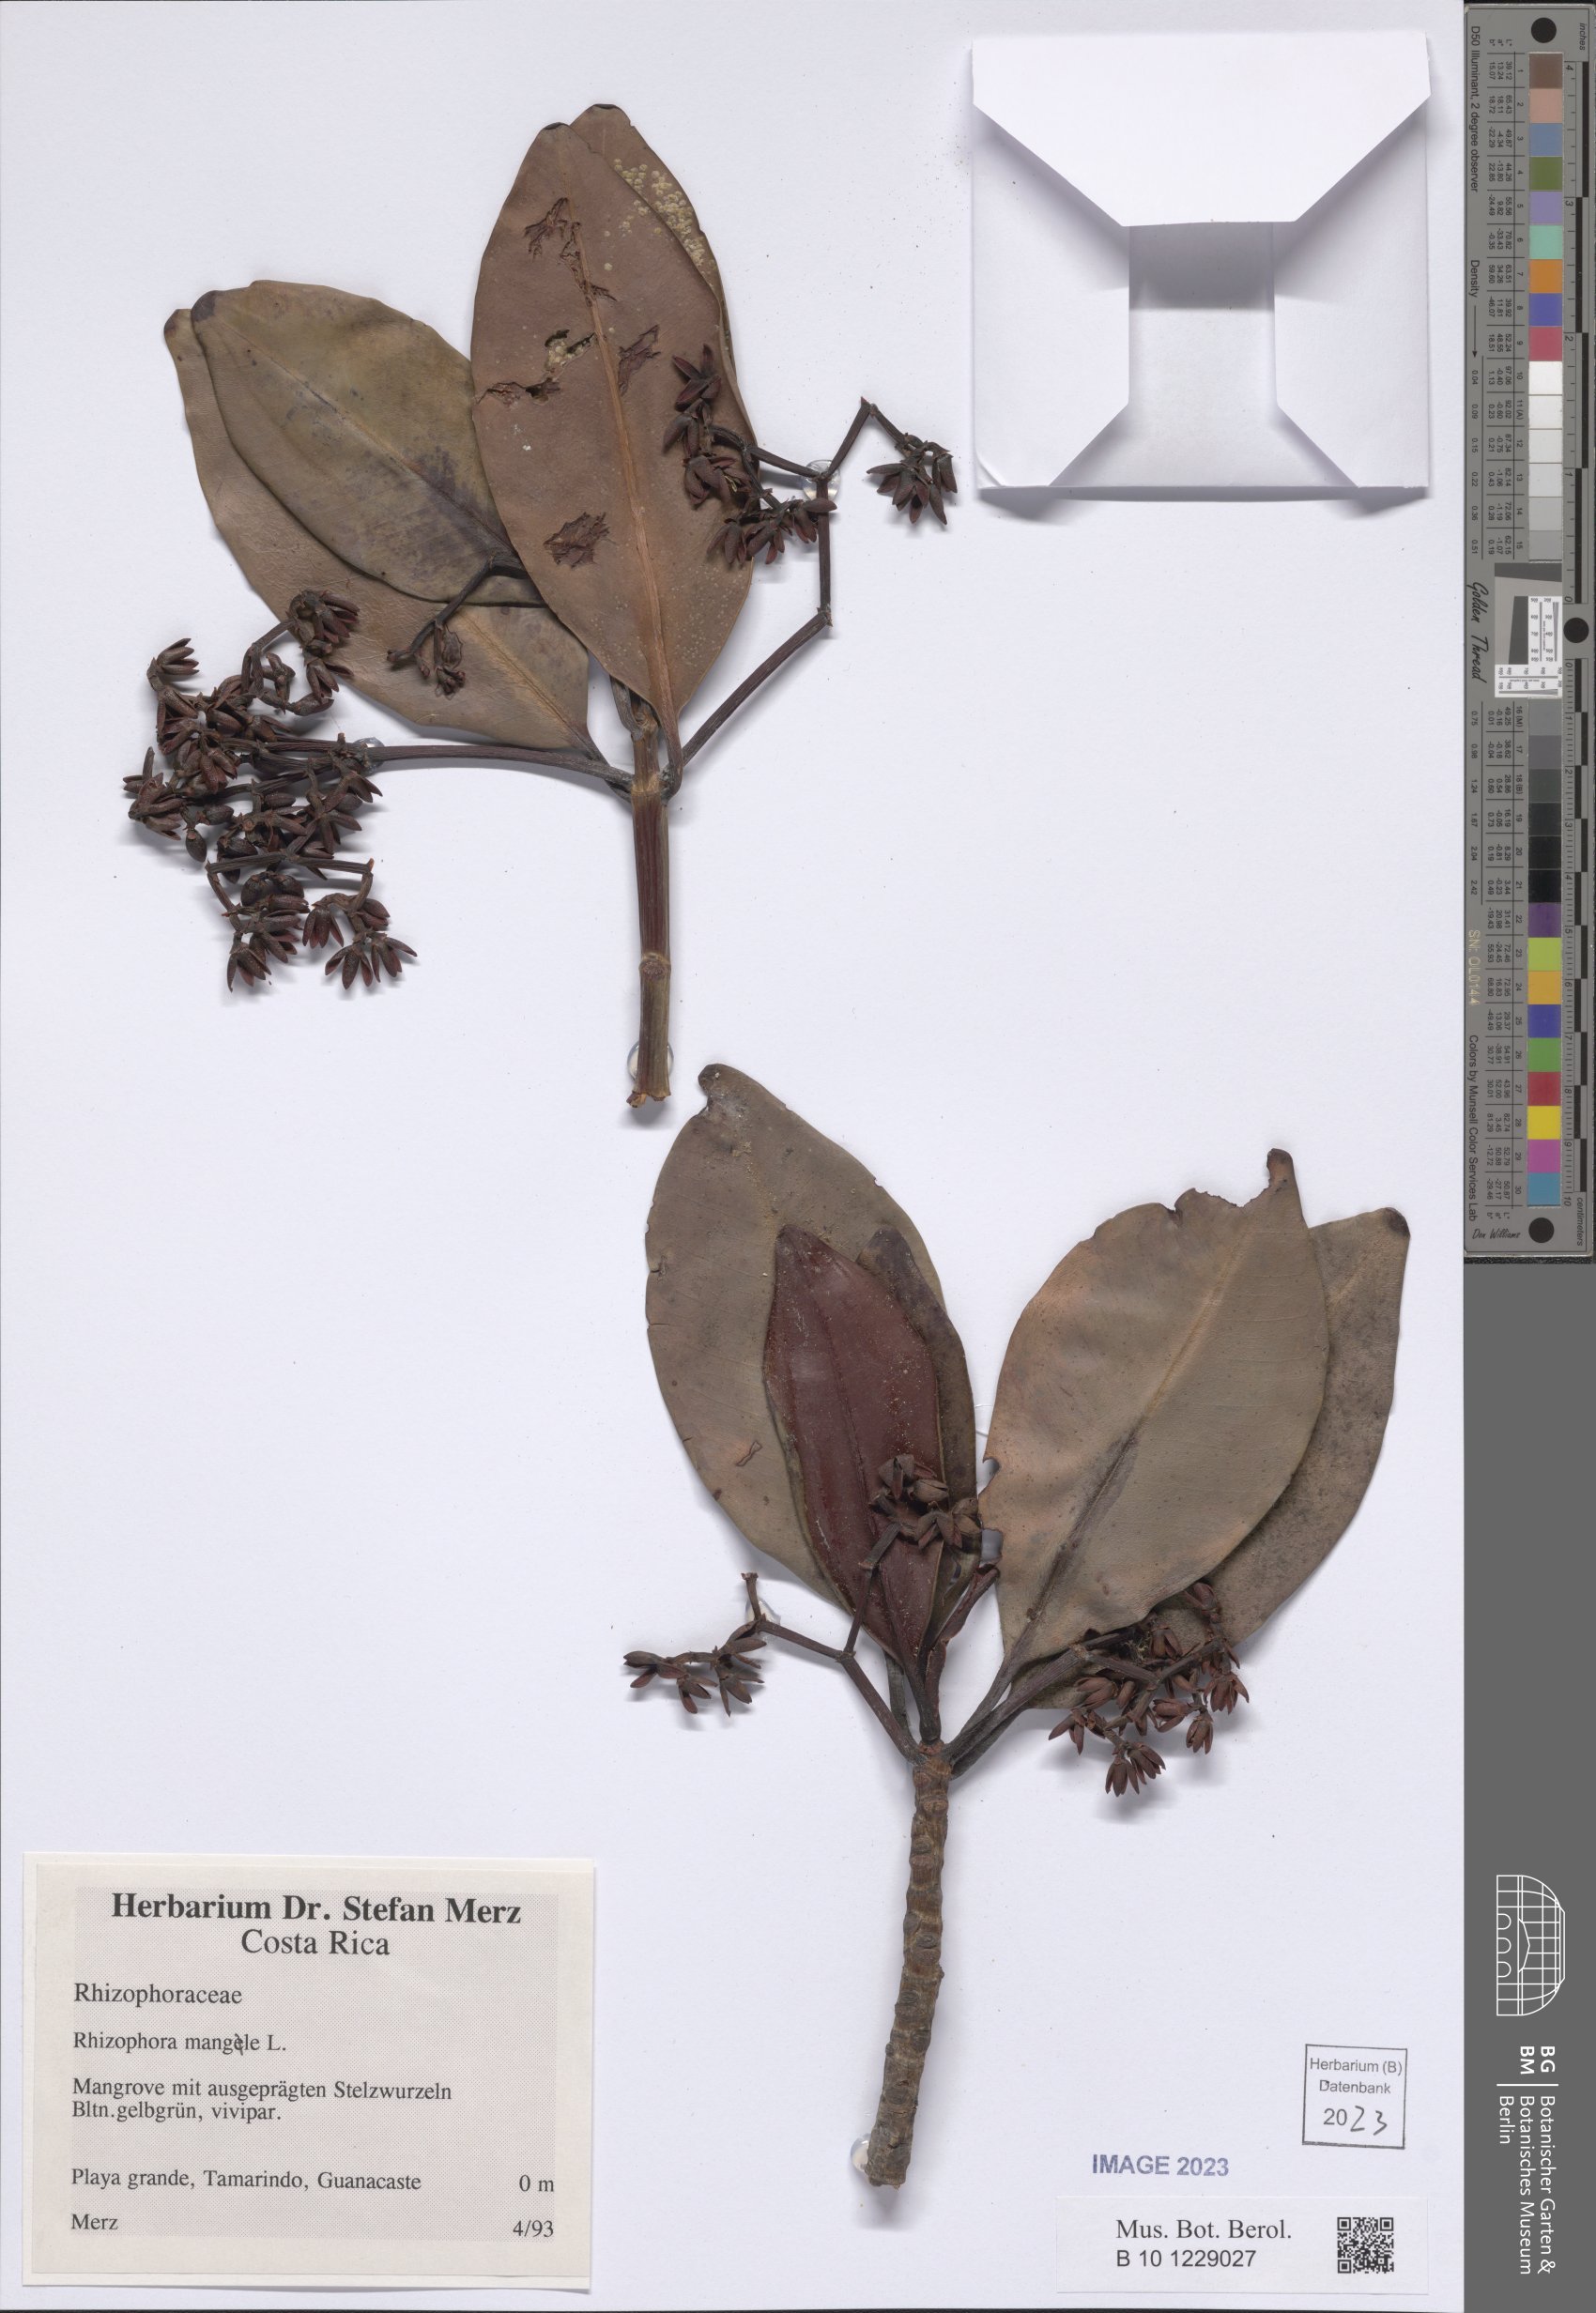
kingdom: Plantae
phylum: Tracheophyta
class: Magnoliopsida
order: Malpighiales
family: Rhizophoraceae
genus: Rhizophora
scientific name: Rhizophora mangle
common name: Red mangrove
